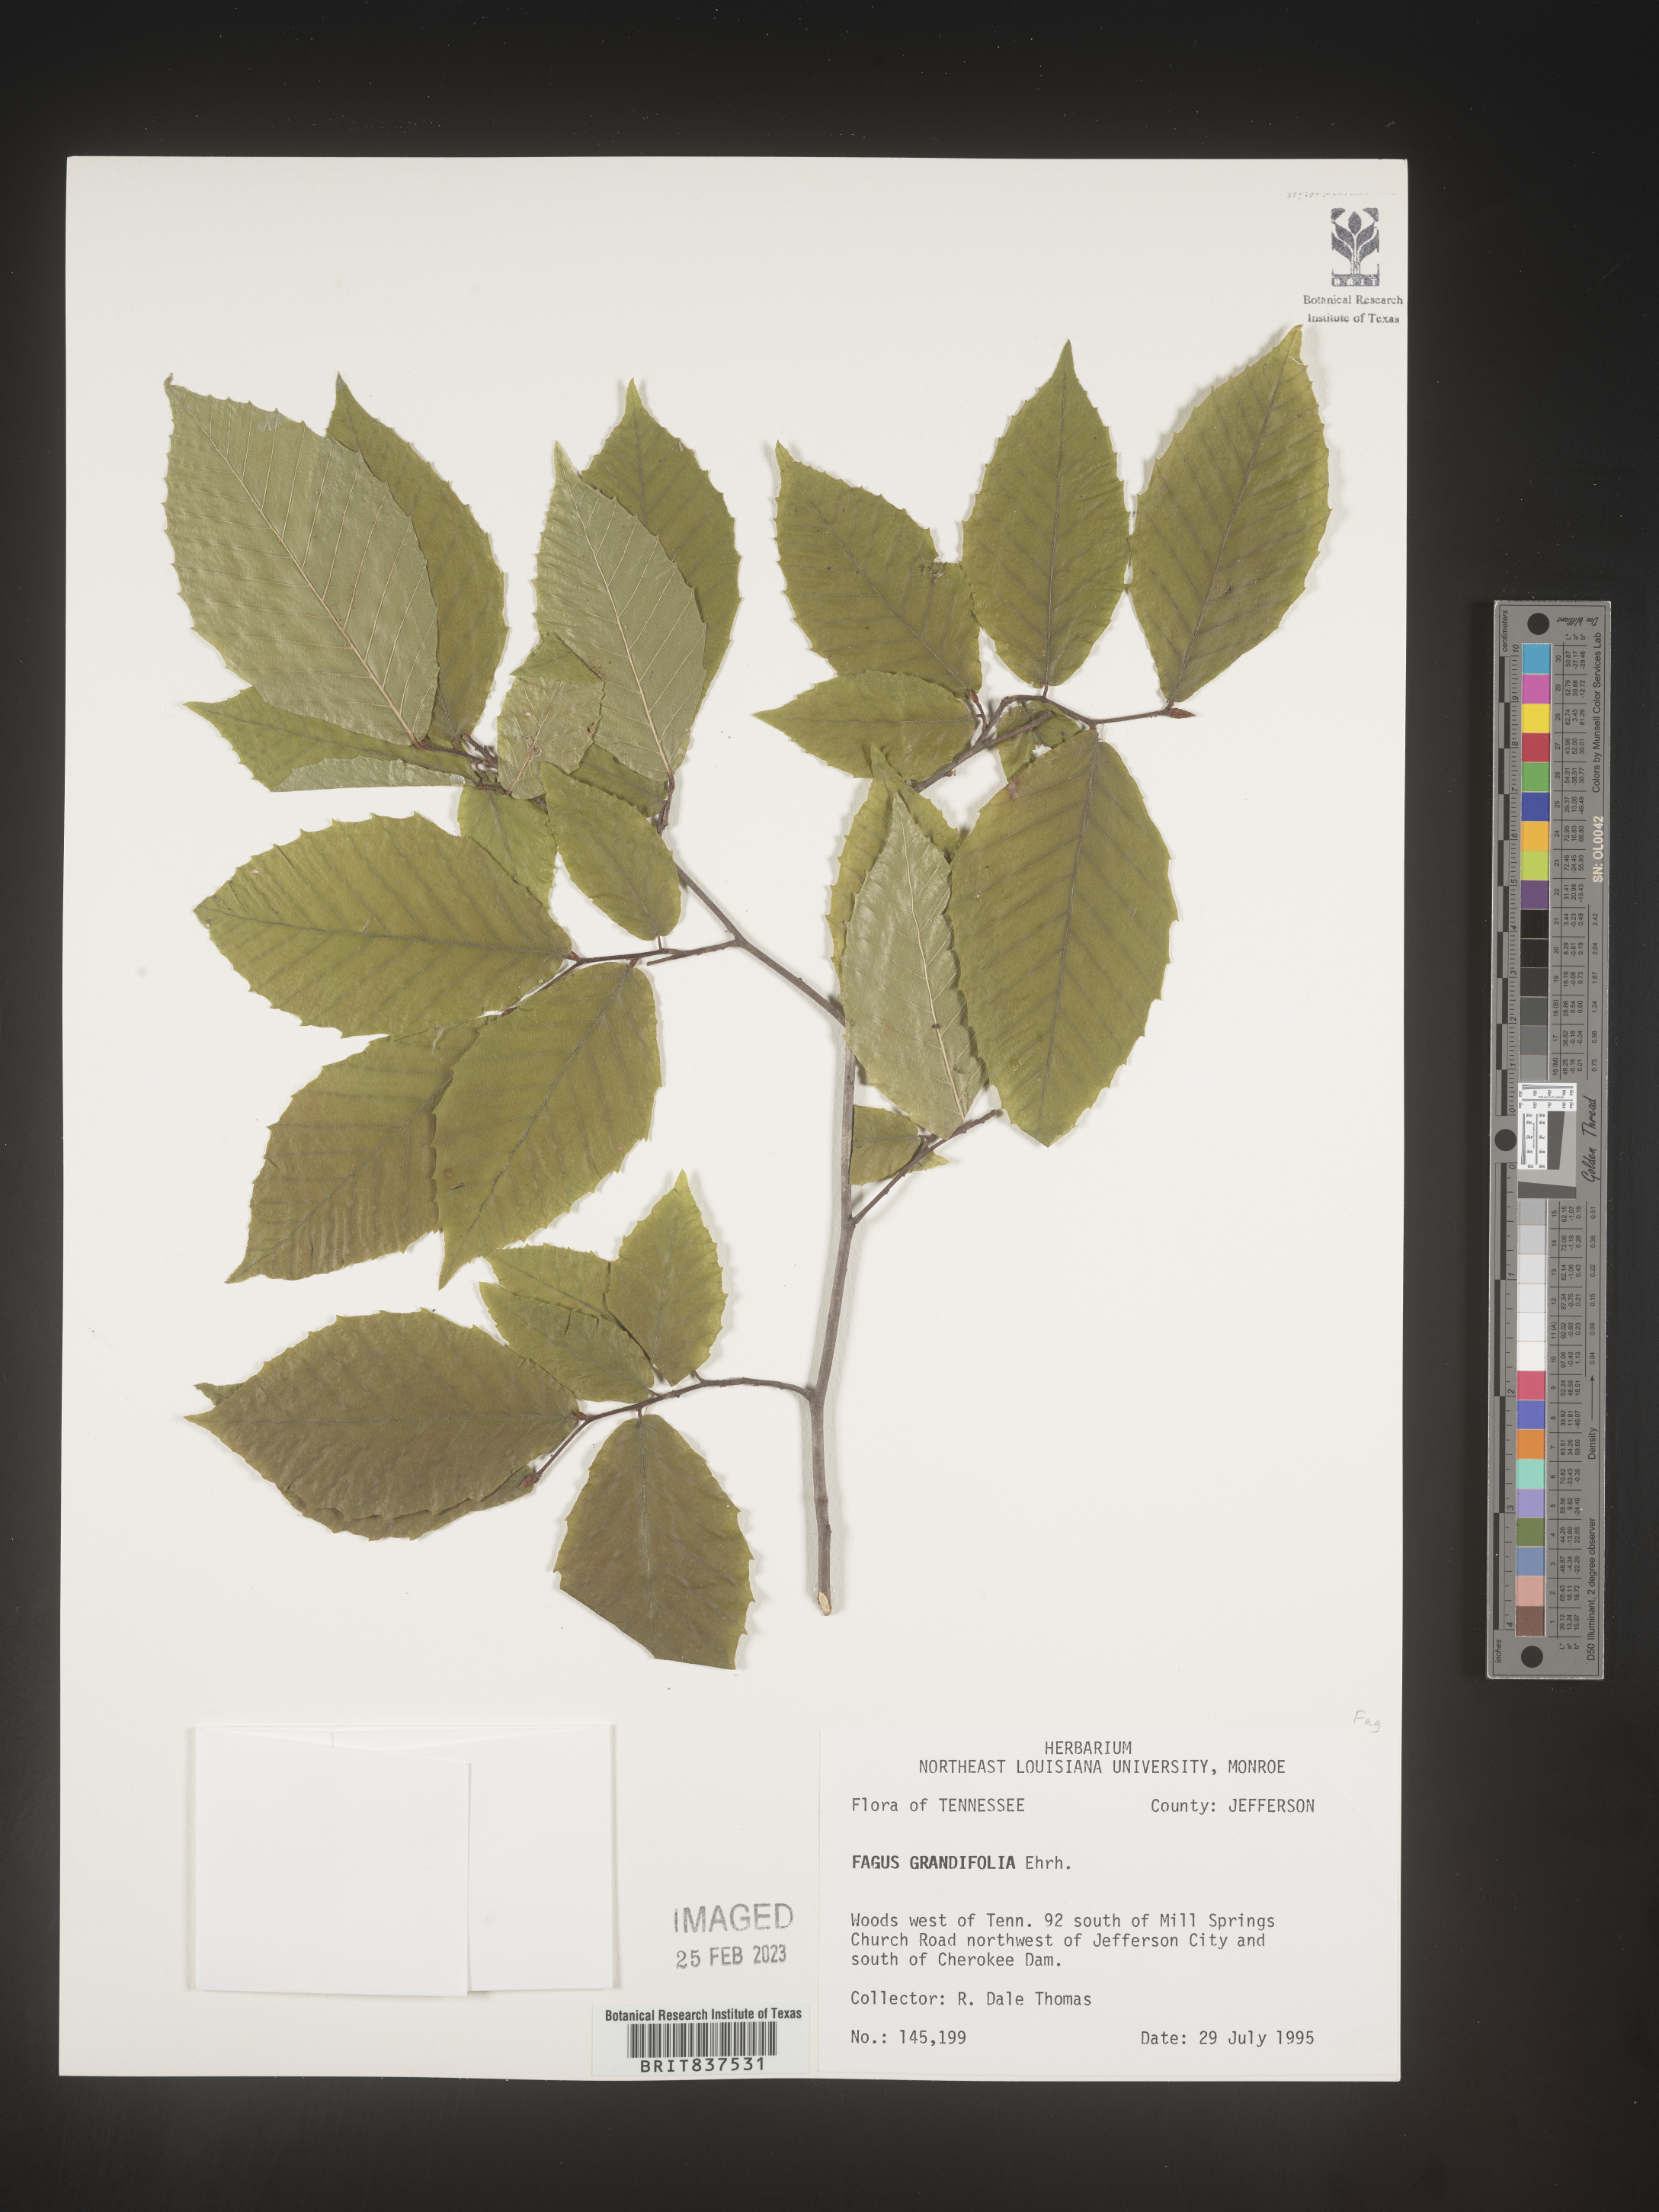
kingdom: Plantae
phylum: Tracheophyta
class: Magnoliopsida
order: Fagales
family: Fagaceae
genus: Fagus
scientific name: Fagus grandifolia
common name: American beech
